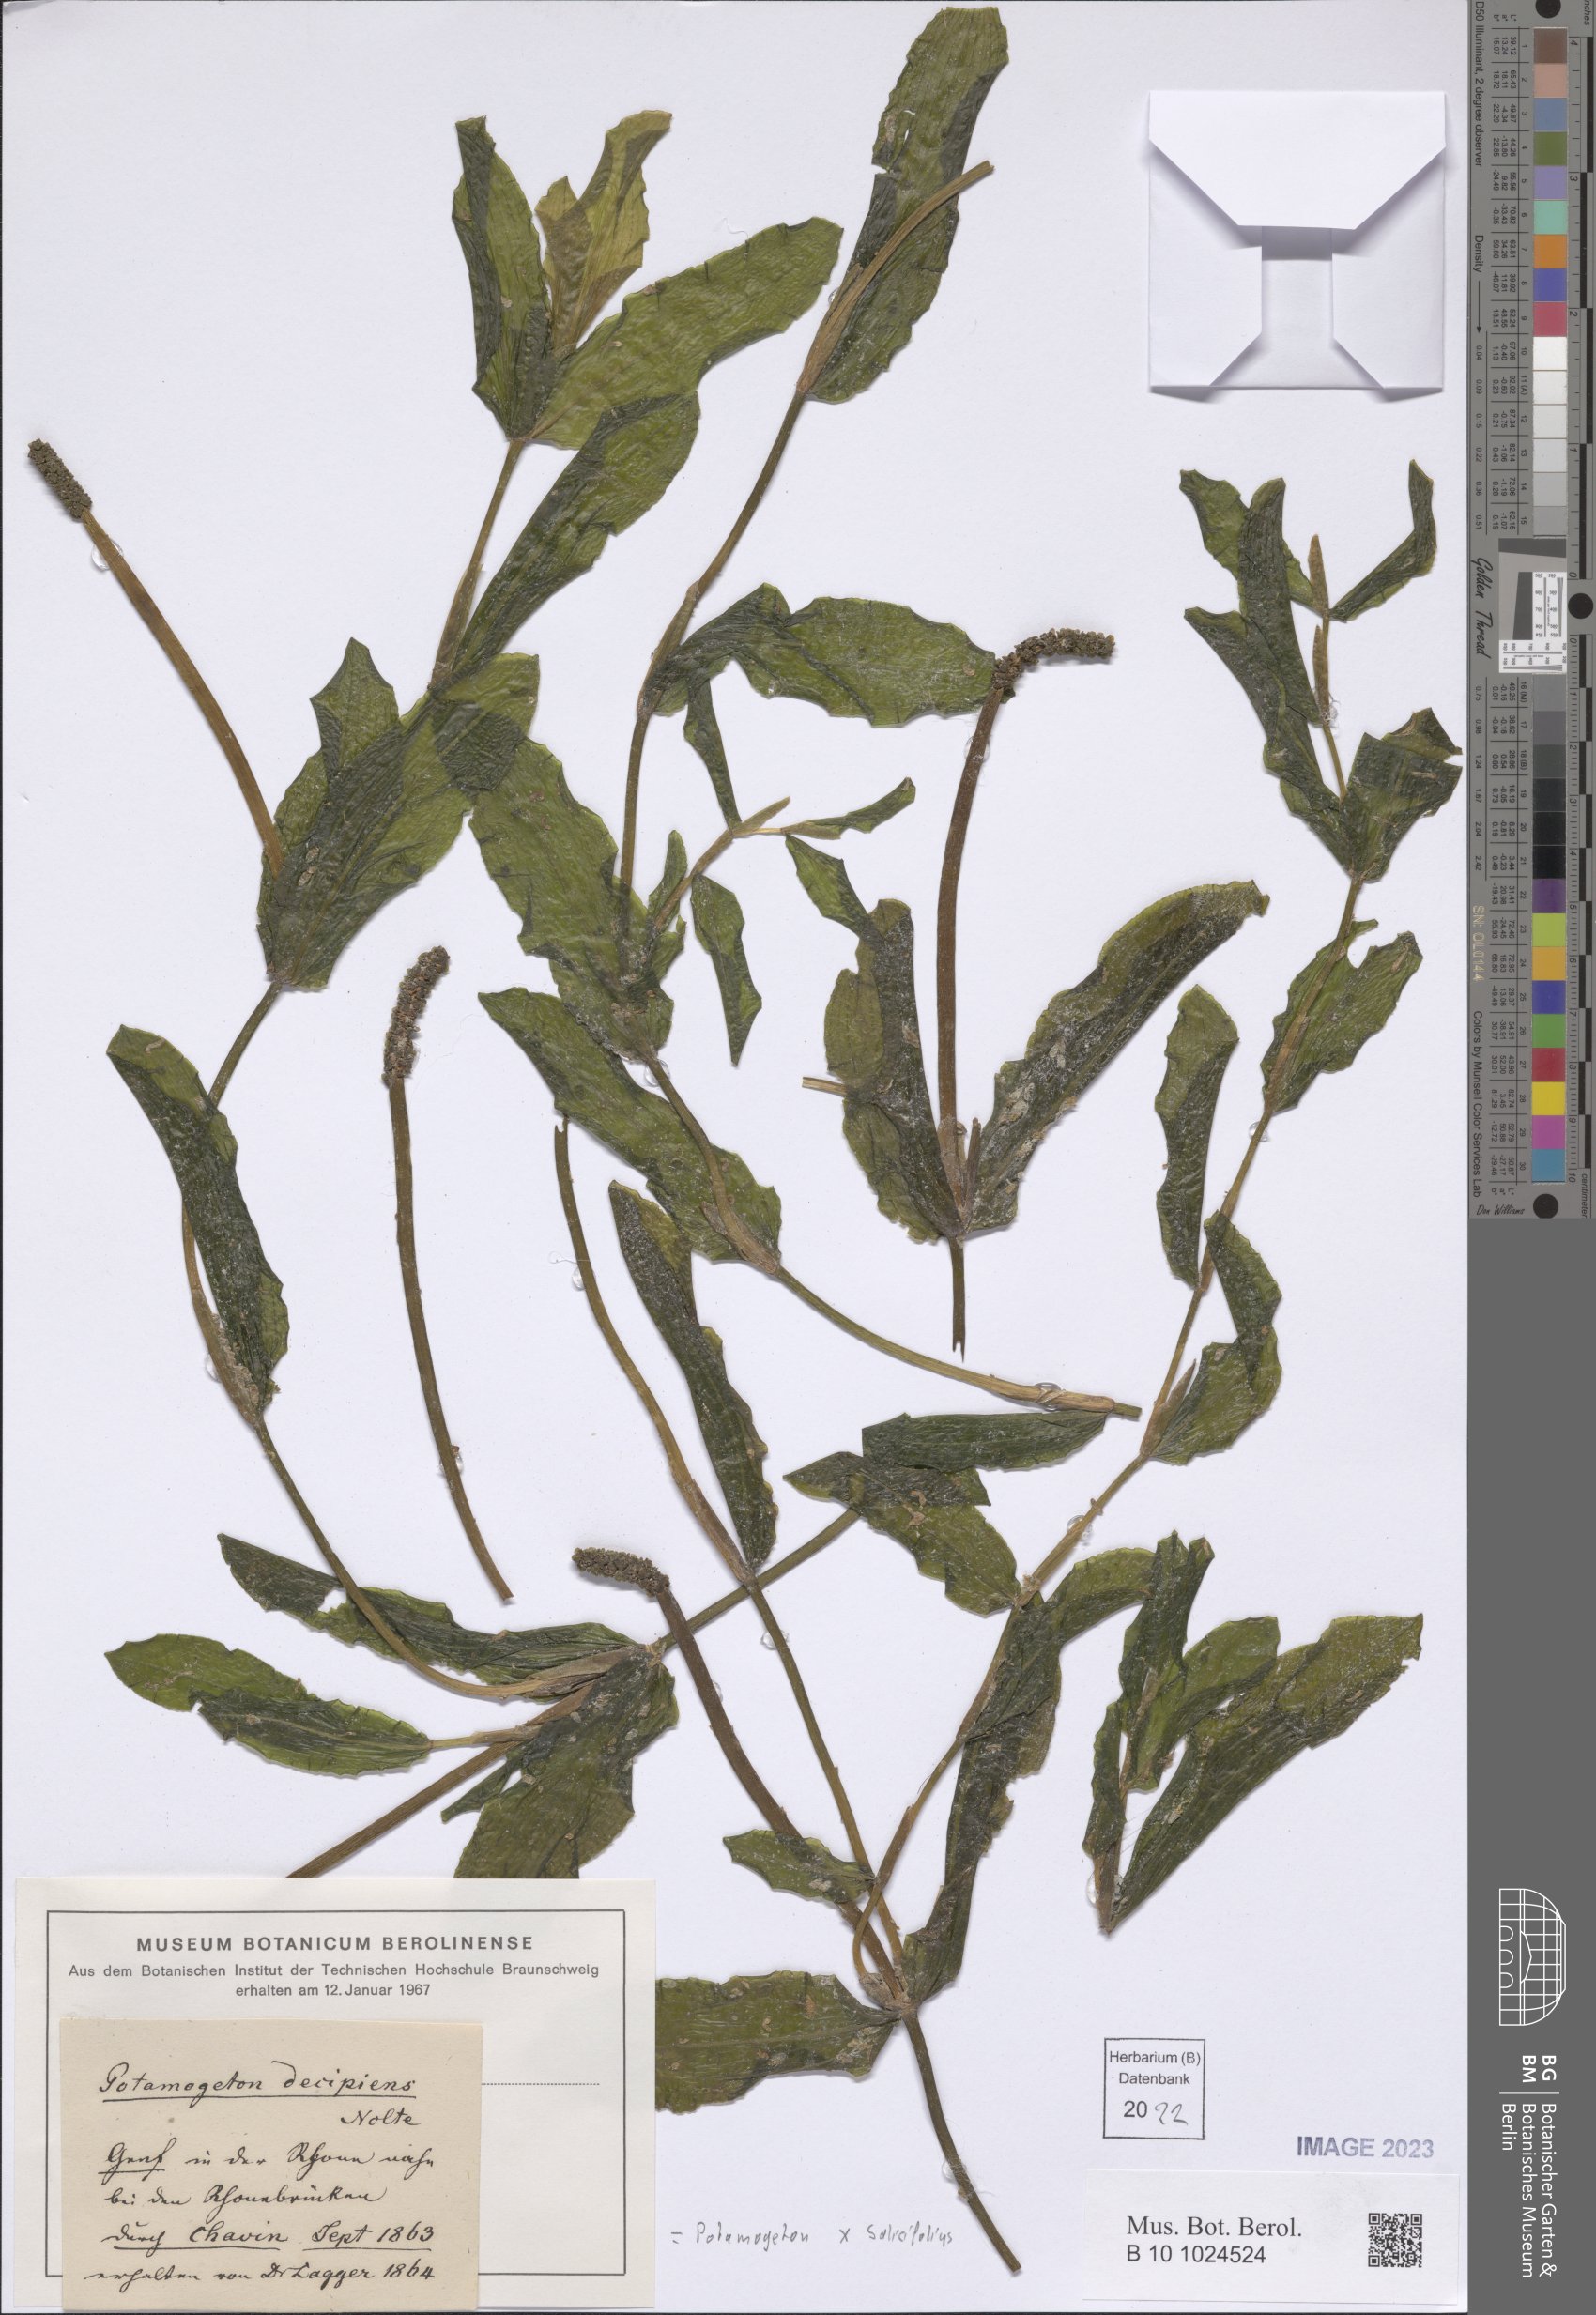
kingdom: Plantae
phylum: Tracheophyta
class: Liliopsida
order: Alismatales
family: Potamogetonaceae
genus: Potamogeton
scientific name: Potamogeton salicifolius
